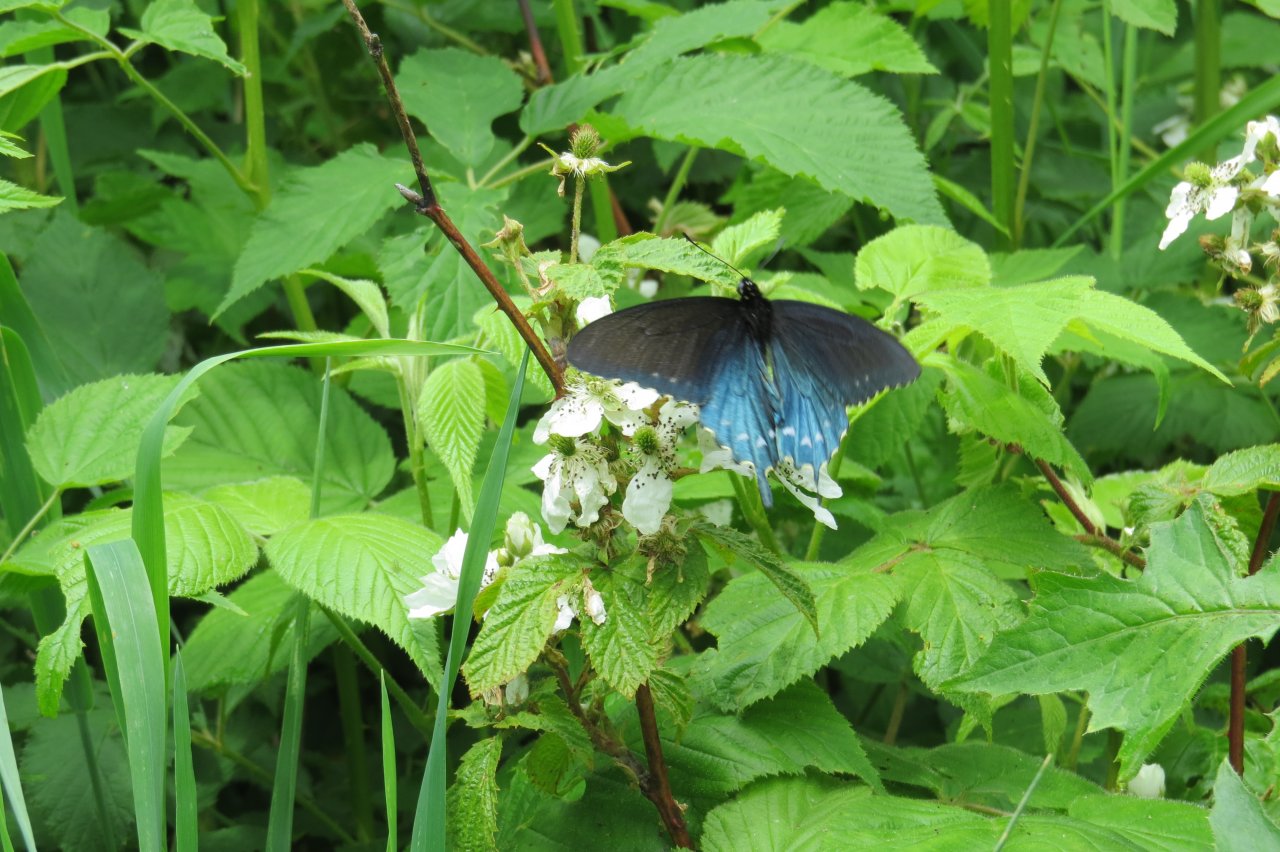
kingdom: Animalia
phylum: Arthropoda
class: Insecta
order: Lepidoptera
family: Papilionidae
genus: Battus
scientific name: Battus philenor
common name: Pipevine Swallowtail
